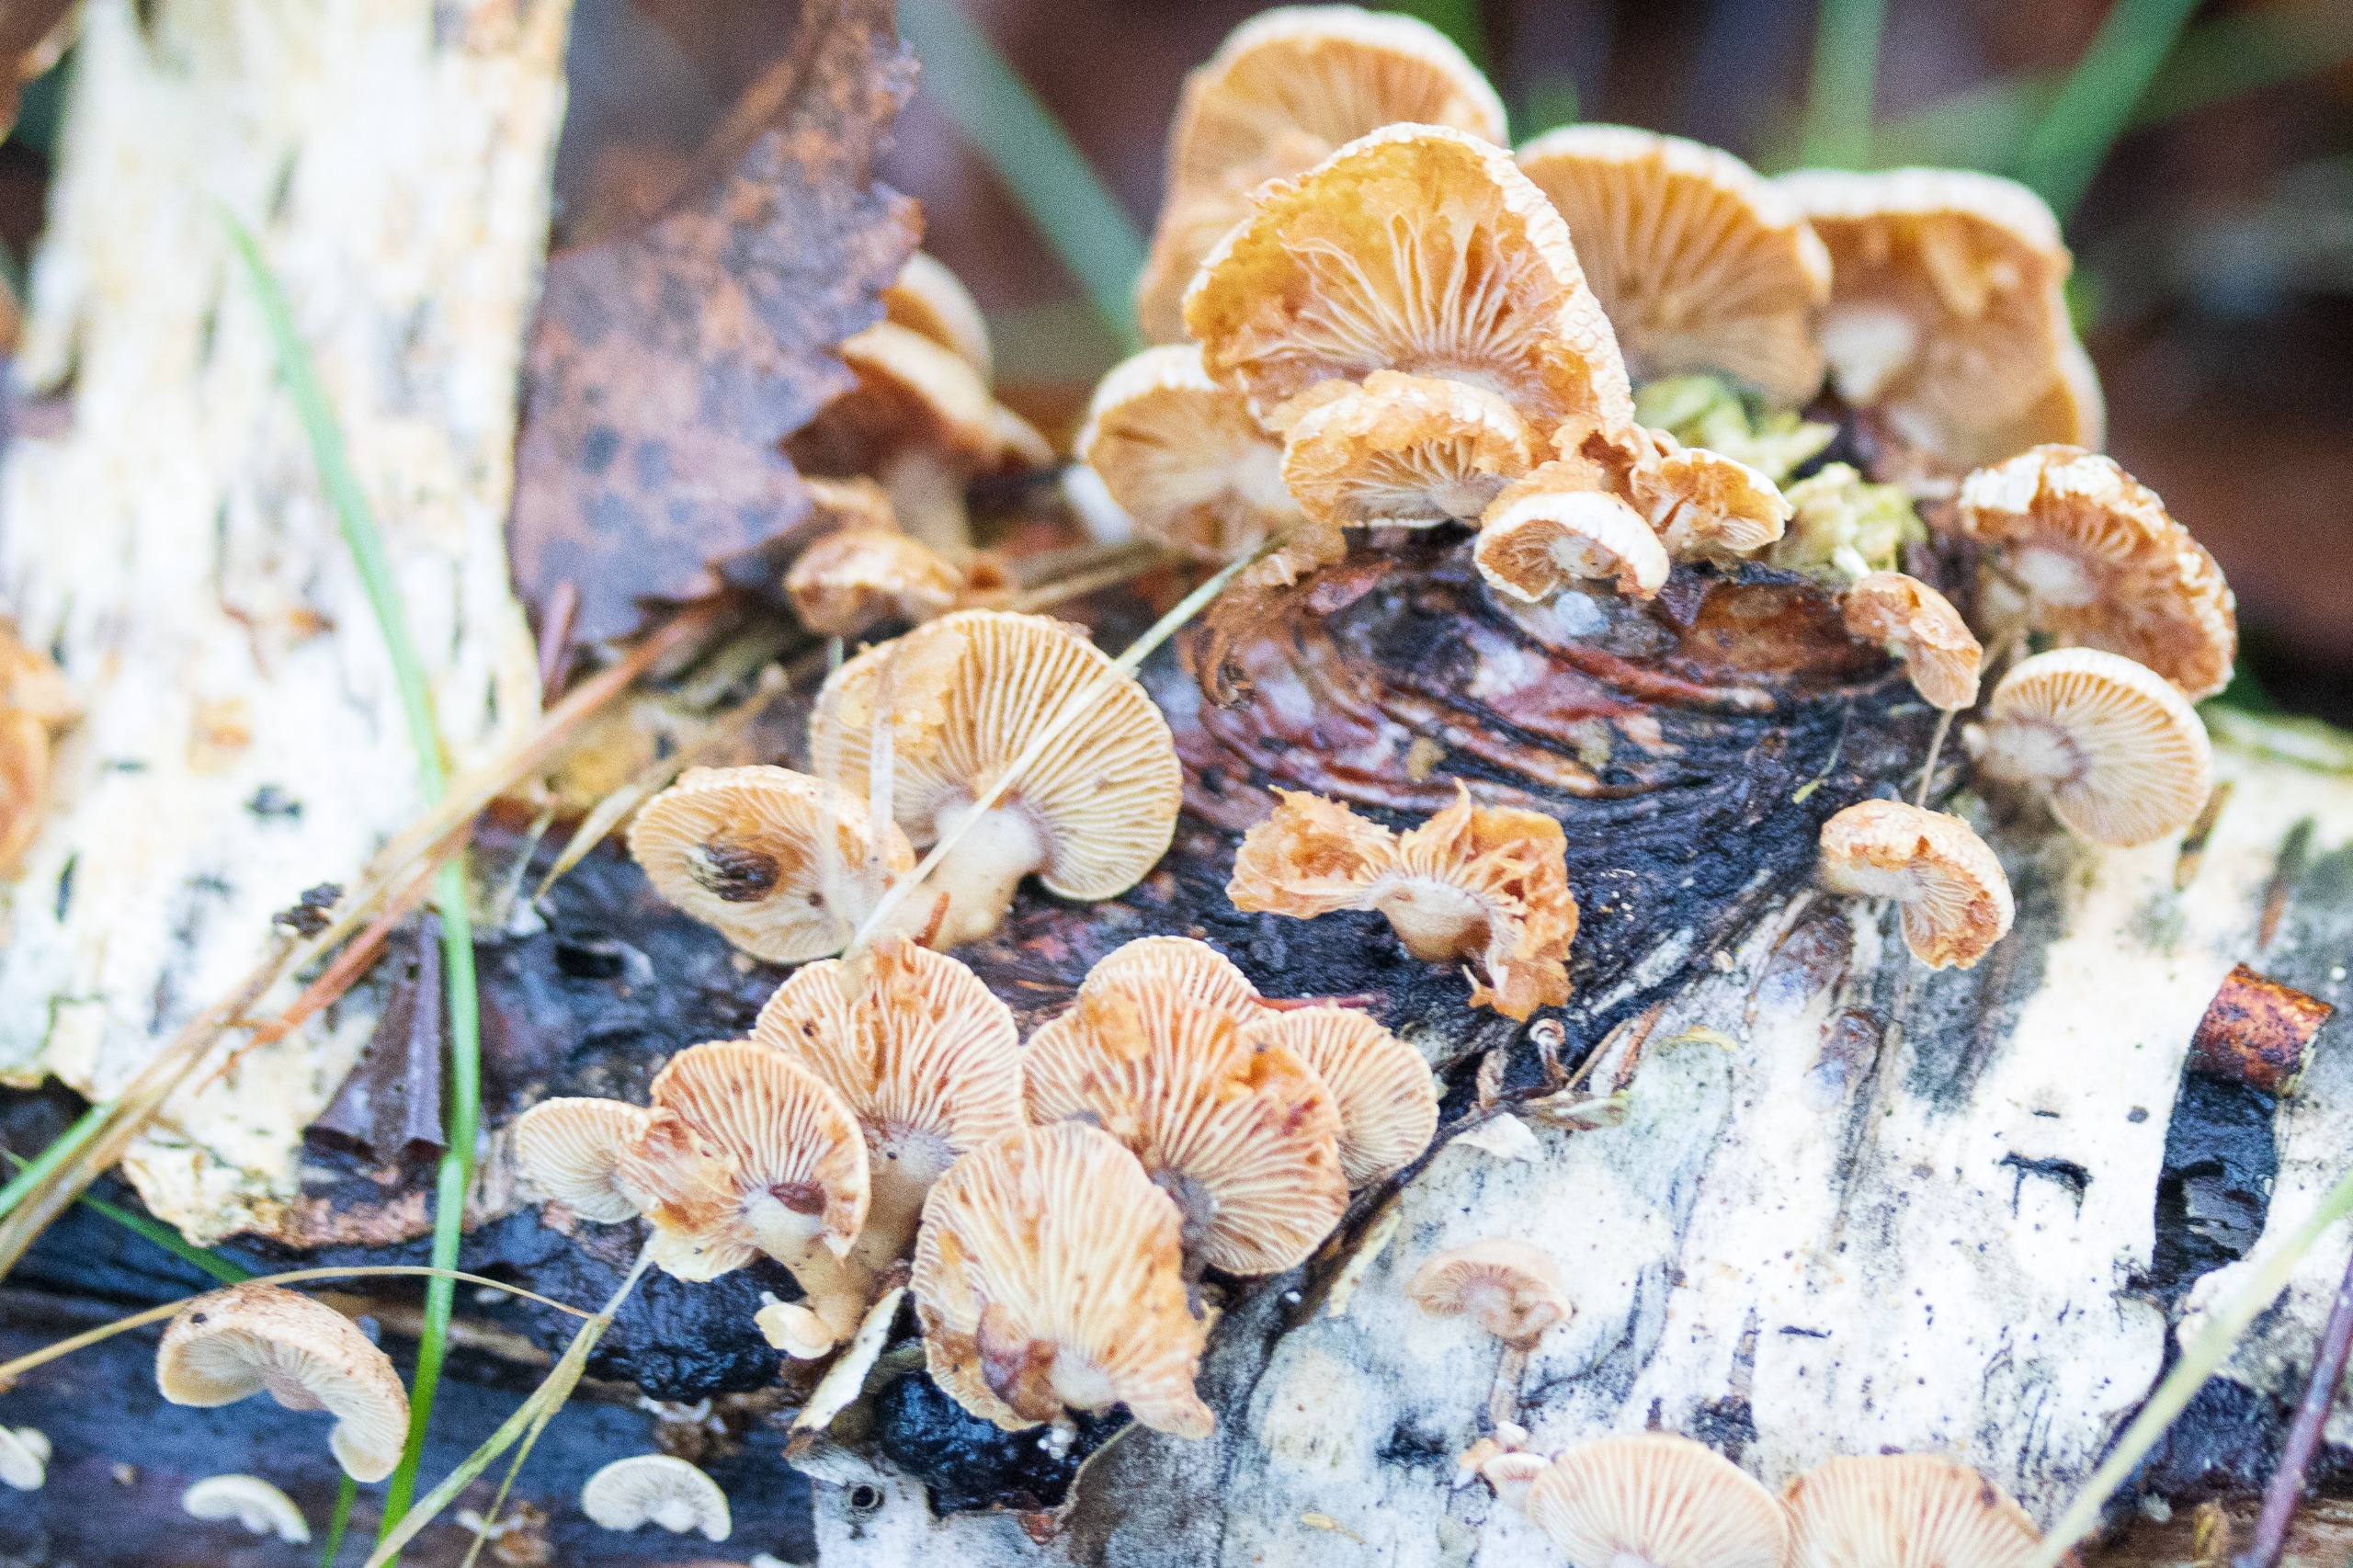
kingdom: Fungi
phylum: Basidiomycota
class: Agaricomycetes
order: Agaricales
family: Mycenaceae
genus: Panellus
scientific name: Panellus stipticus
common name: Kliddet epaulethat
